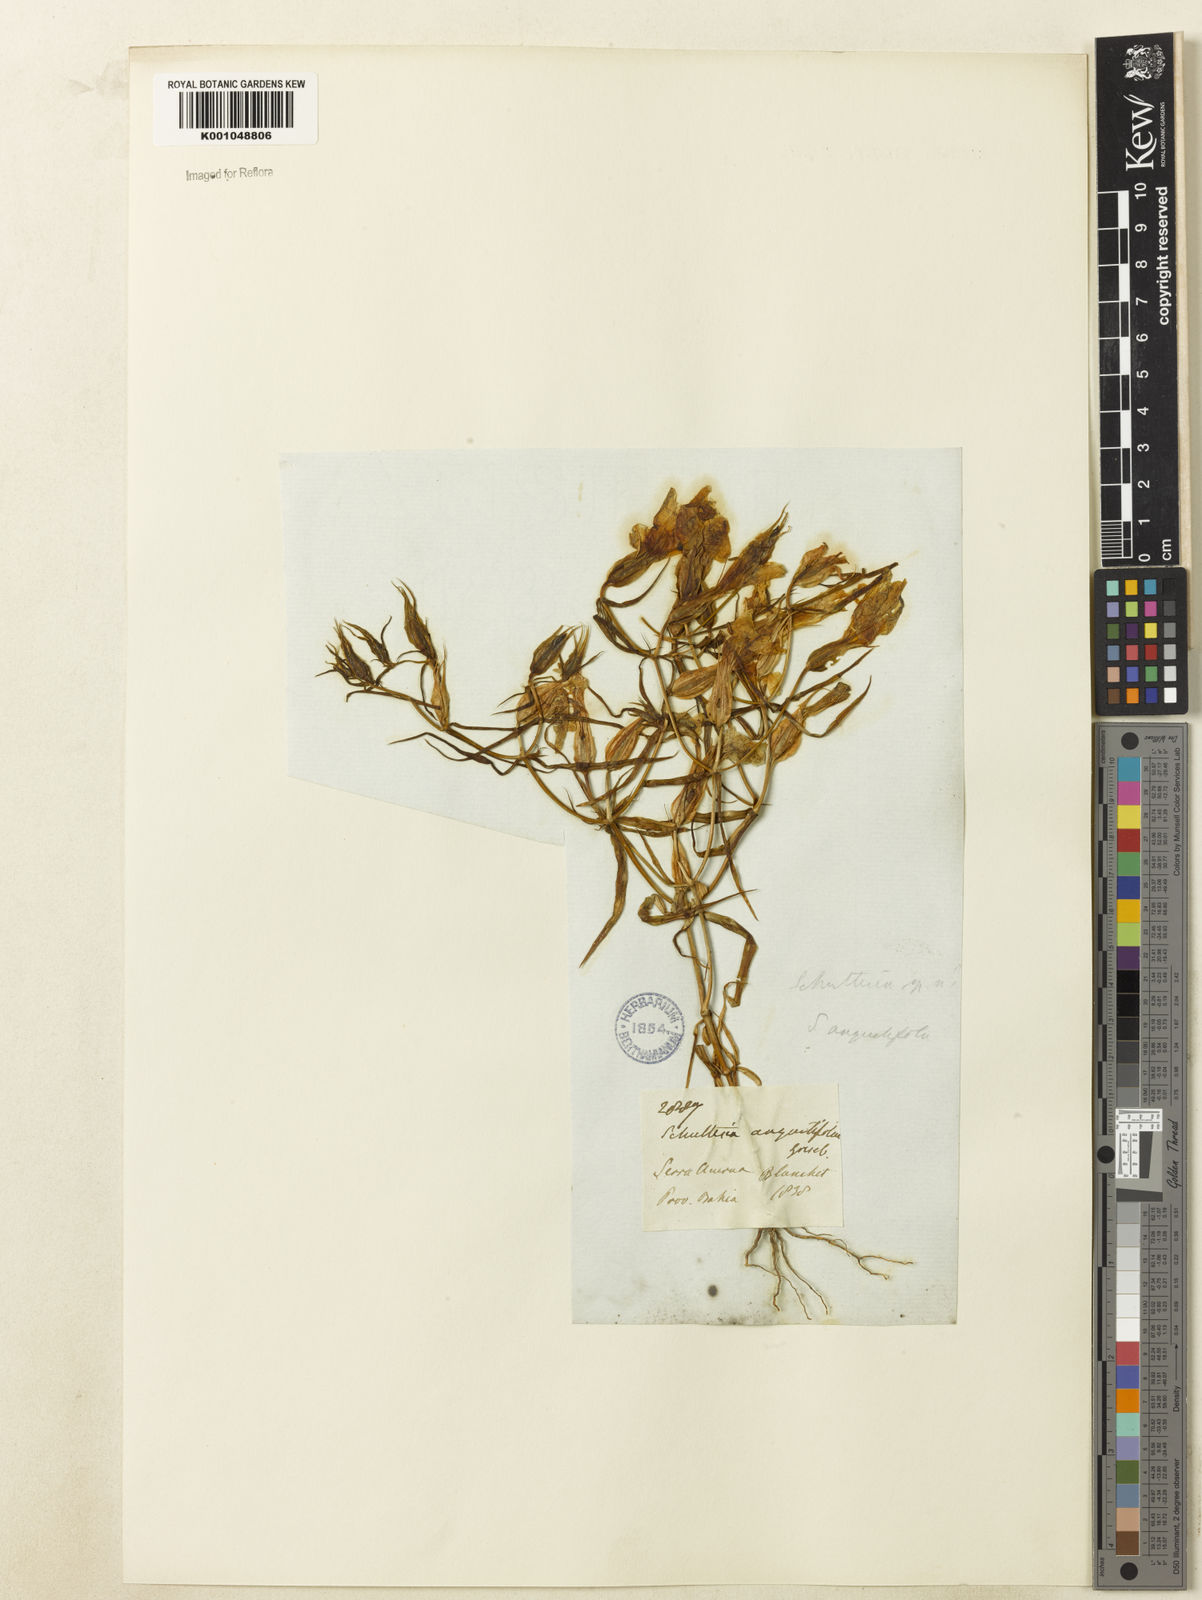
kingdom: Plantae
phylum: Tracheophyta
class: Magnoliopsida
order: Gentianales
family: Gentianaceae
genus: Schultesia
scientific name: Schultesia angustifolia
